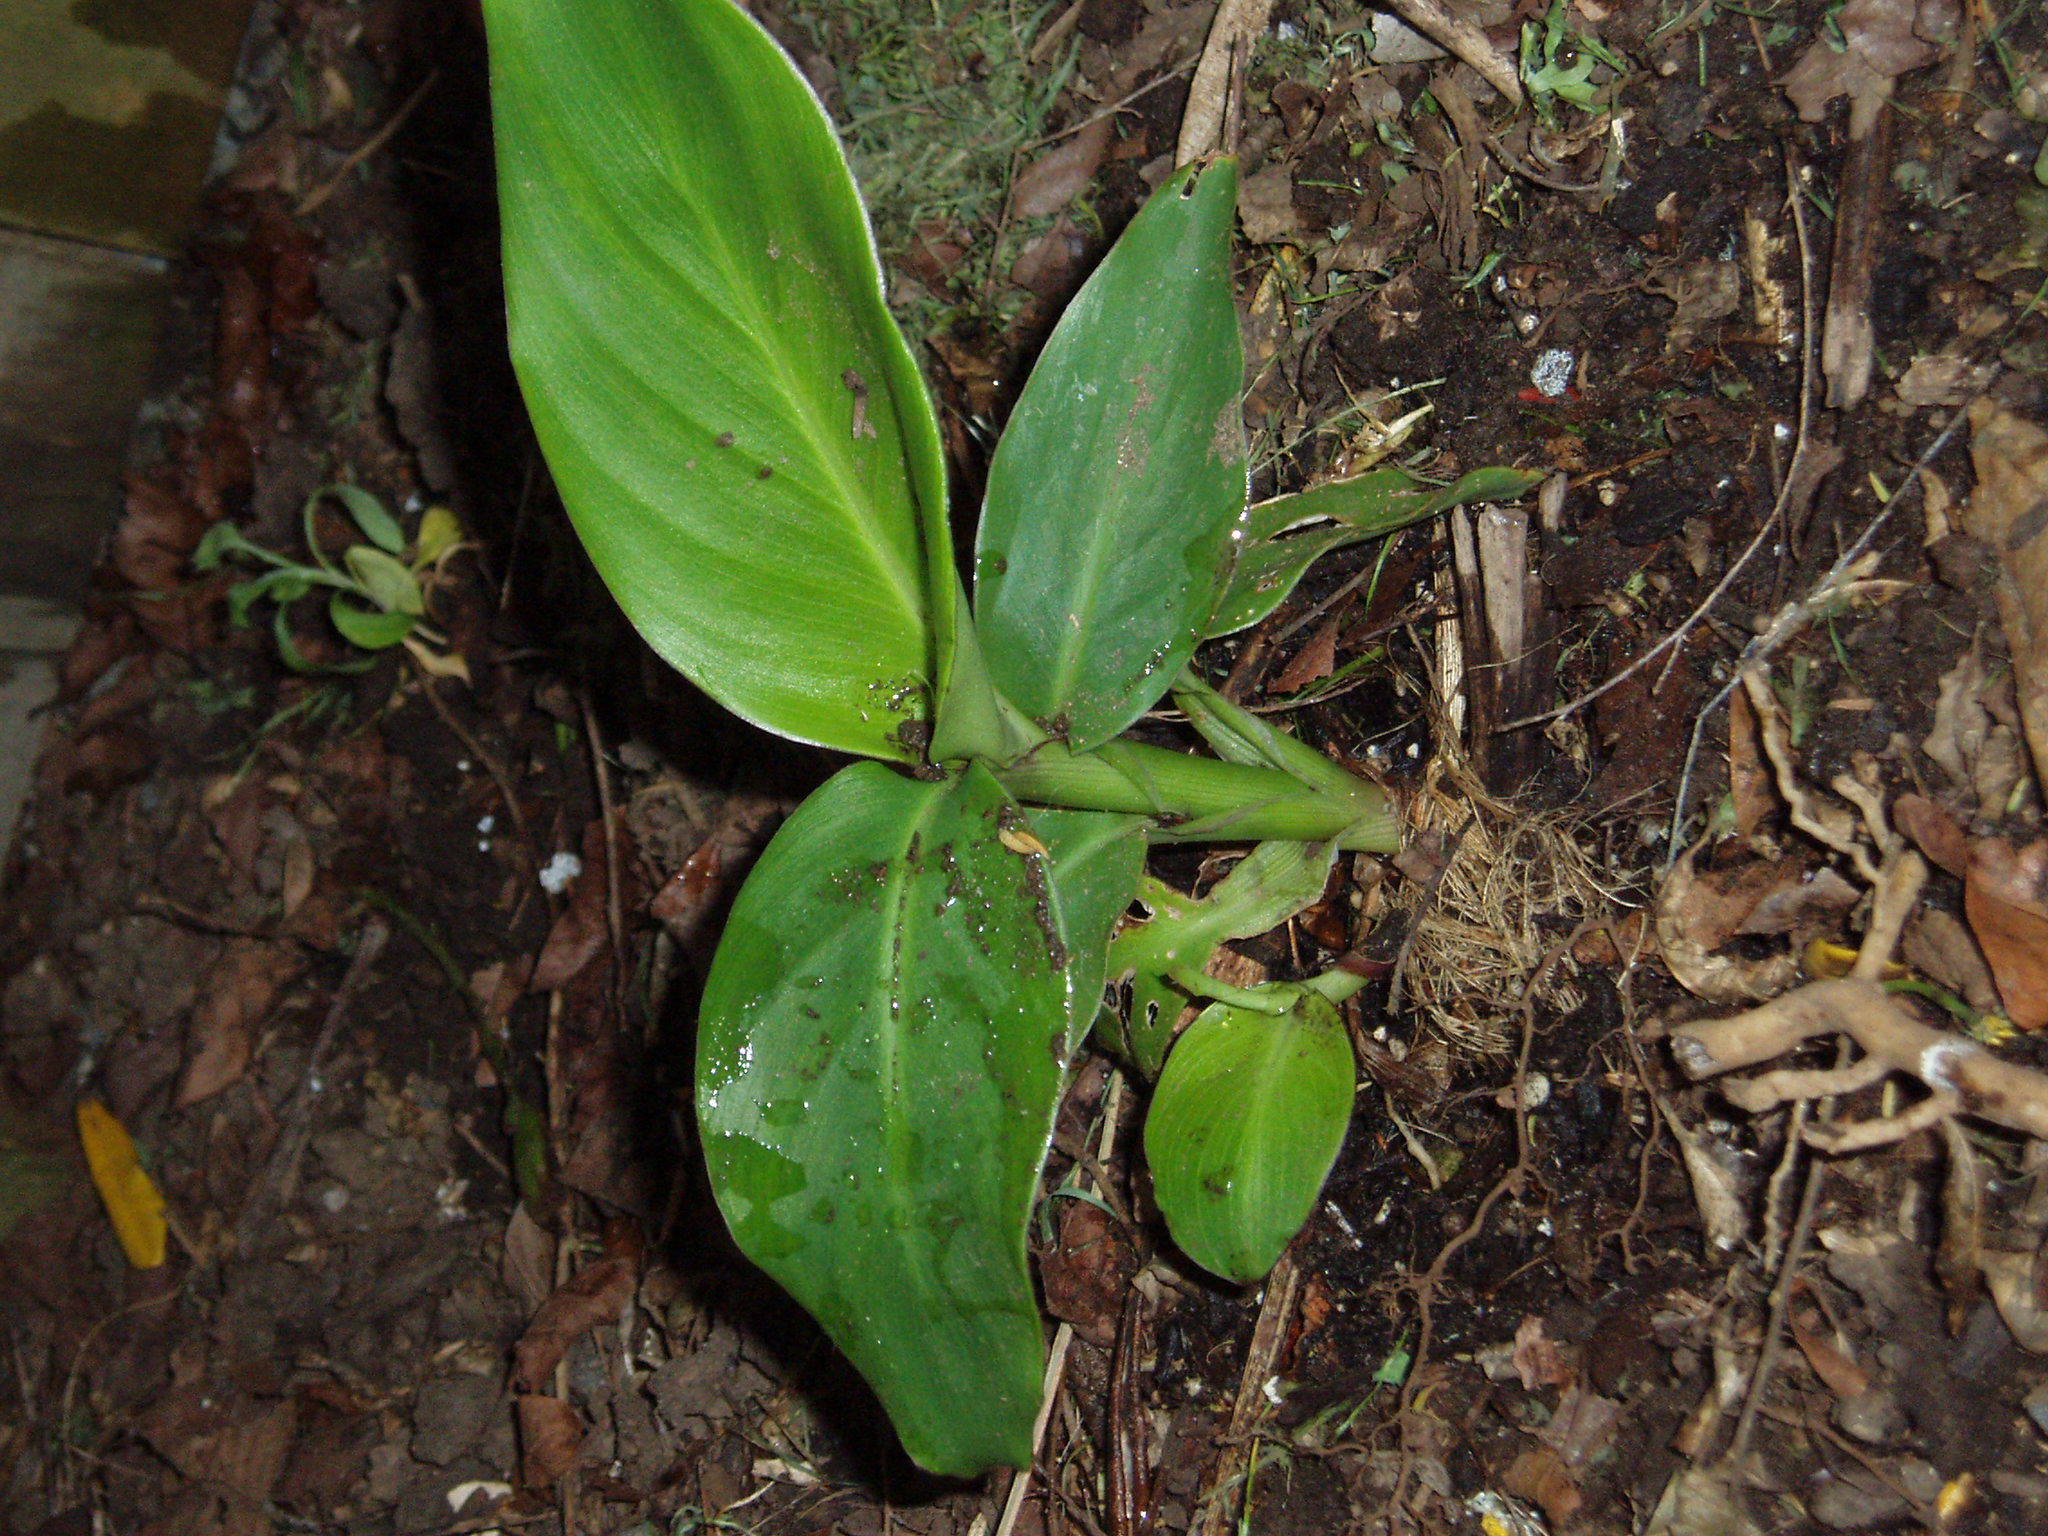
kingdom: Plantae
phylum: Tracheophyta
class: Liliopsida
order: Zingiberales
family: Cannaceae
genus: Canna
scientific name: Canna indica
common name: Indian shot
